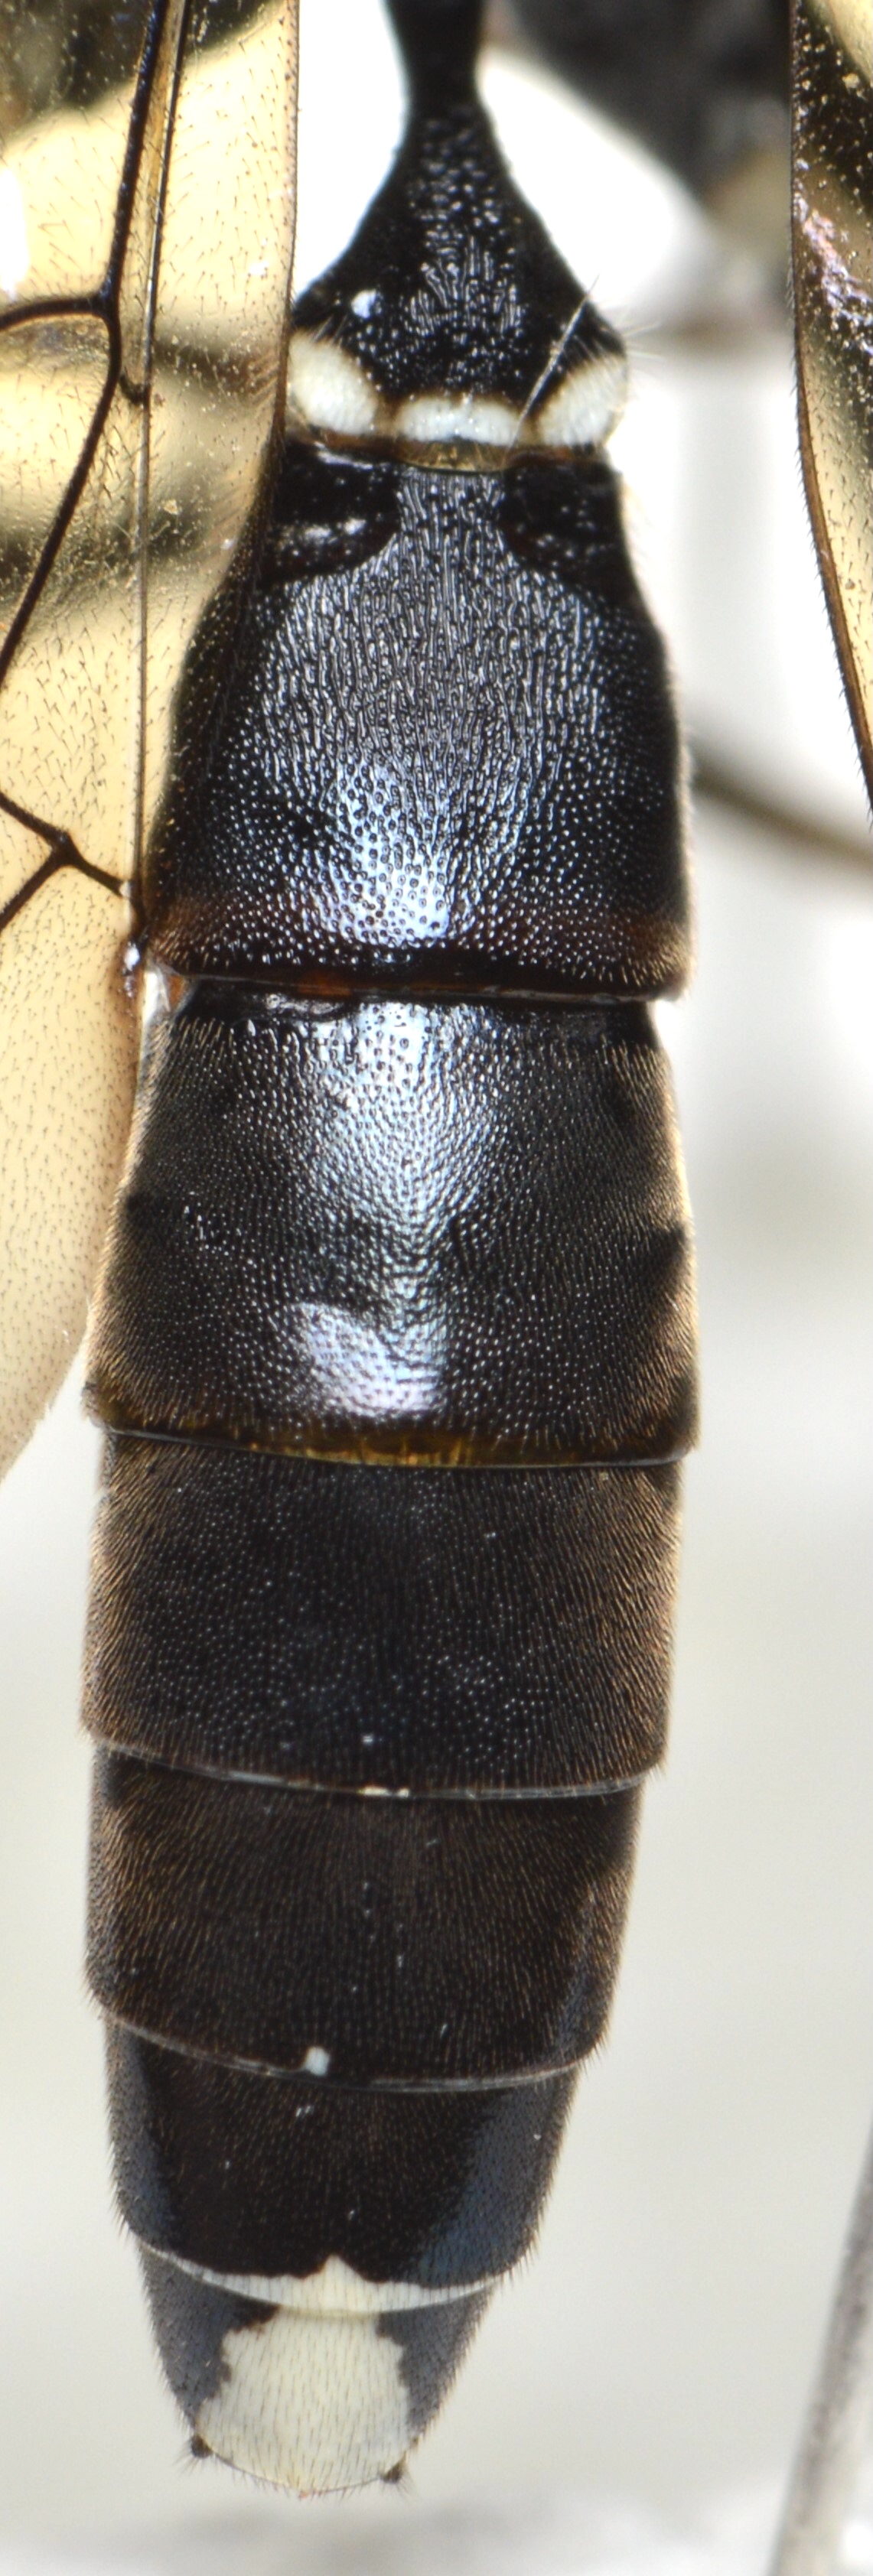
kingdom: Animalia
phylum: Arthropoda
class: Insecta
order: Hymenoptera
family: Ichneumonidae
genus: Goedartia
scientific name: Goedartia alboguttata
